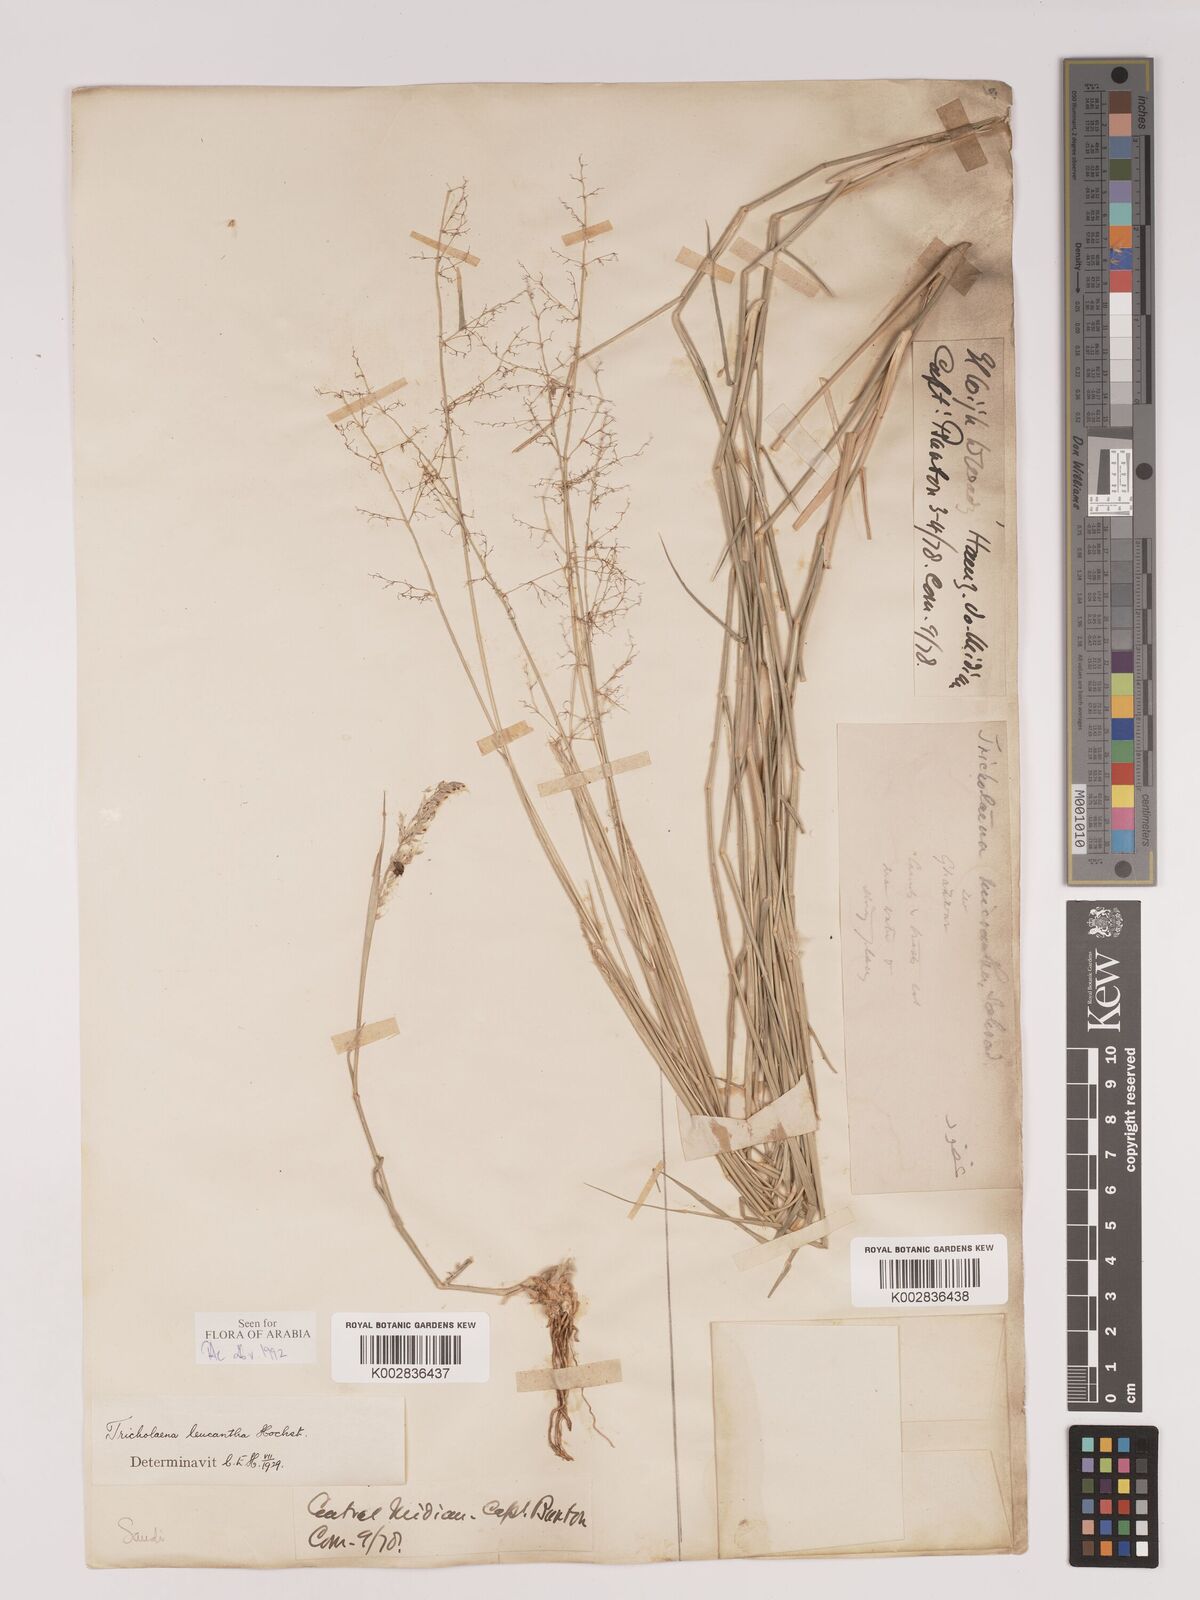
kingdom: Plantae
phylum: Tracheophyta
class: Liliopsida
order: Poales
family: Poaceae
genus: Tricholaena
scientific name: Tricholaena teneriffae
